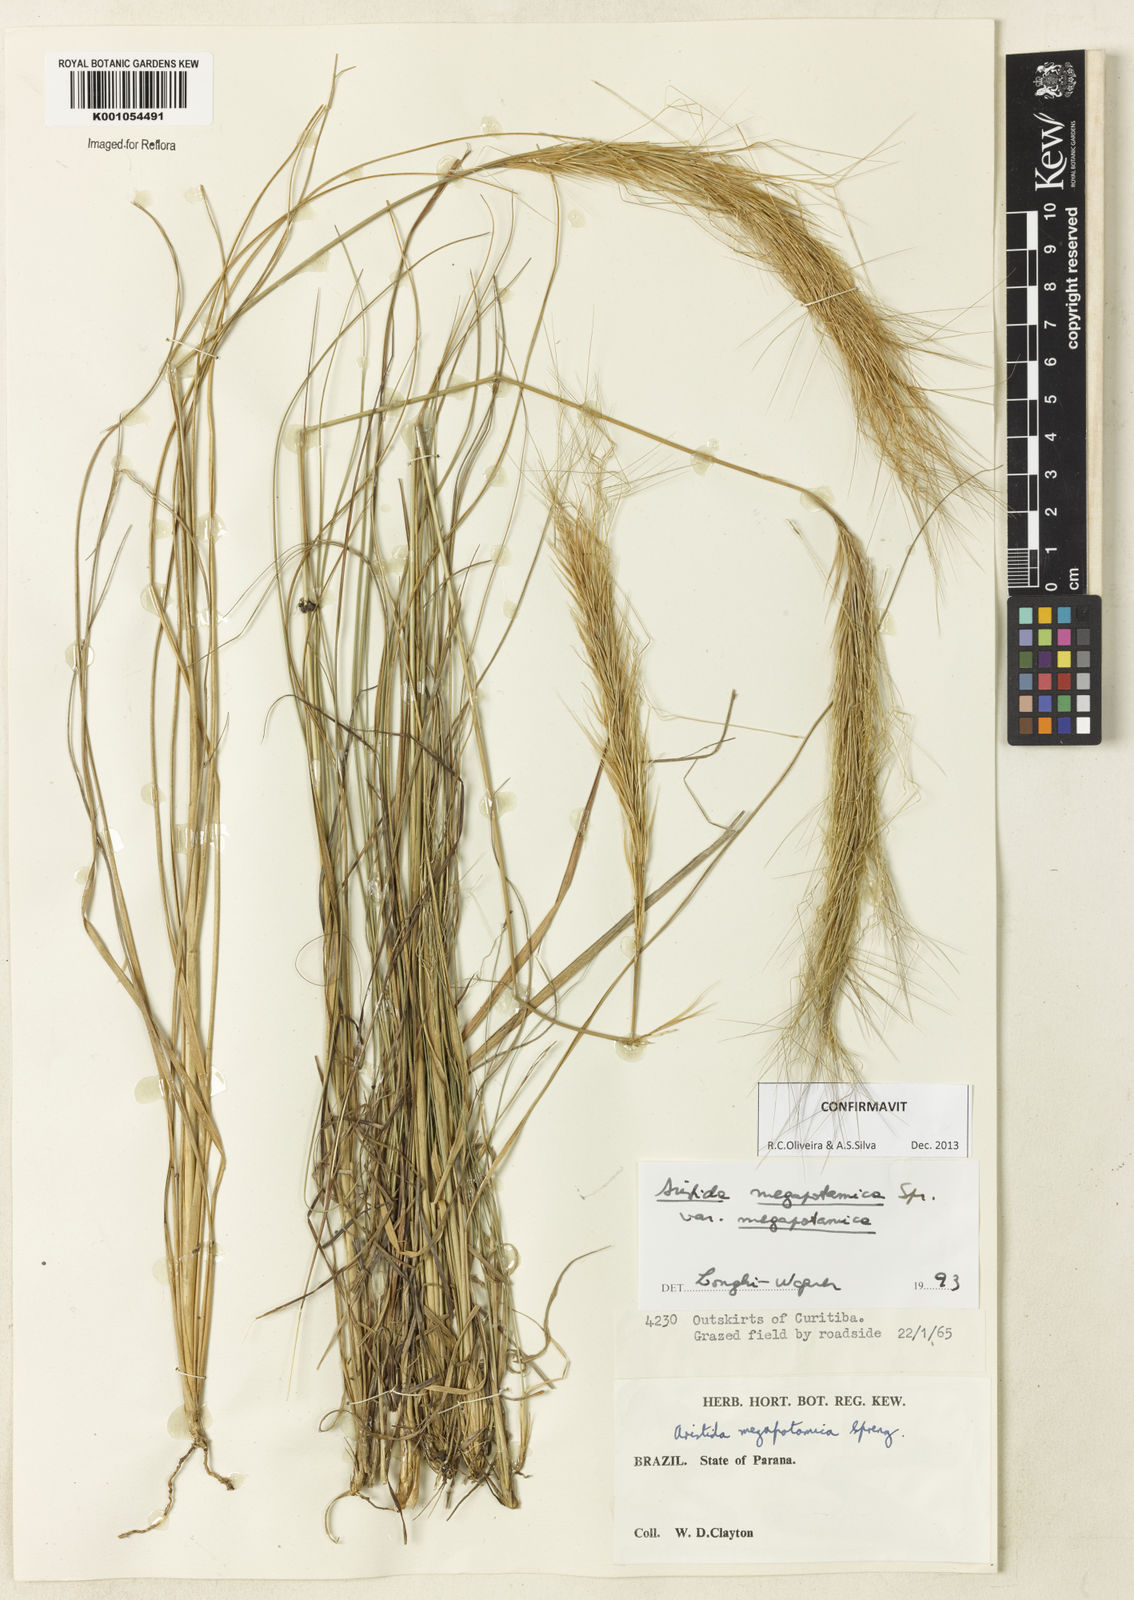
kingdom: Plantae
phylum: Tracheophyta
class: Liliopsida
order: Poales
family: Poaceae
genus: Aristida
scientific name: Aristida megapotamica
